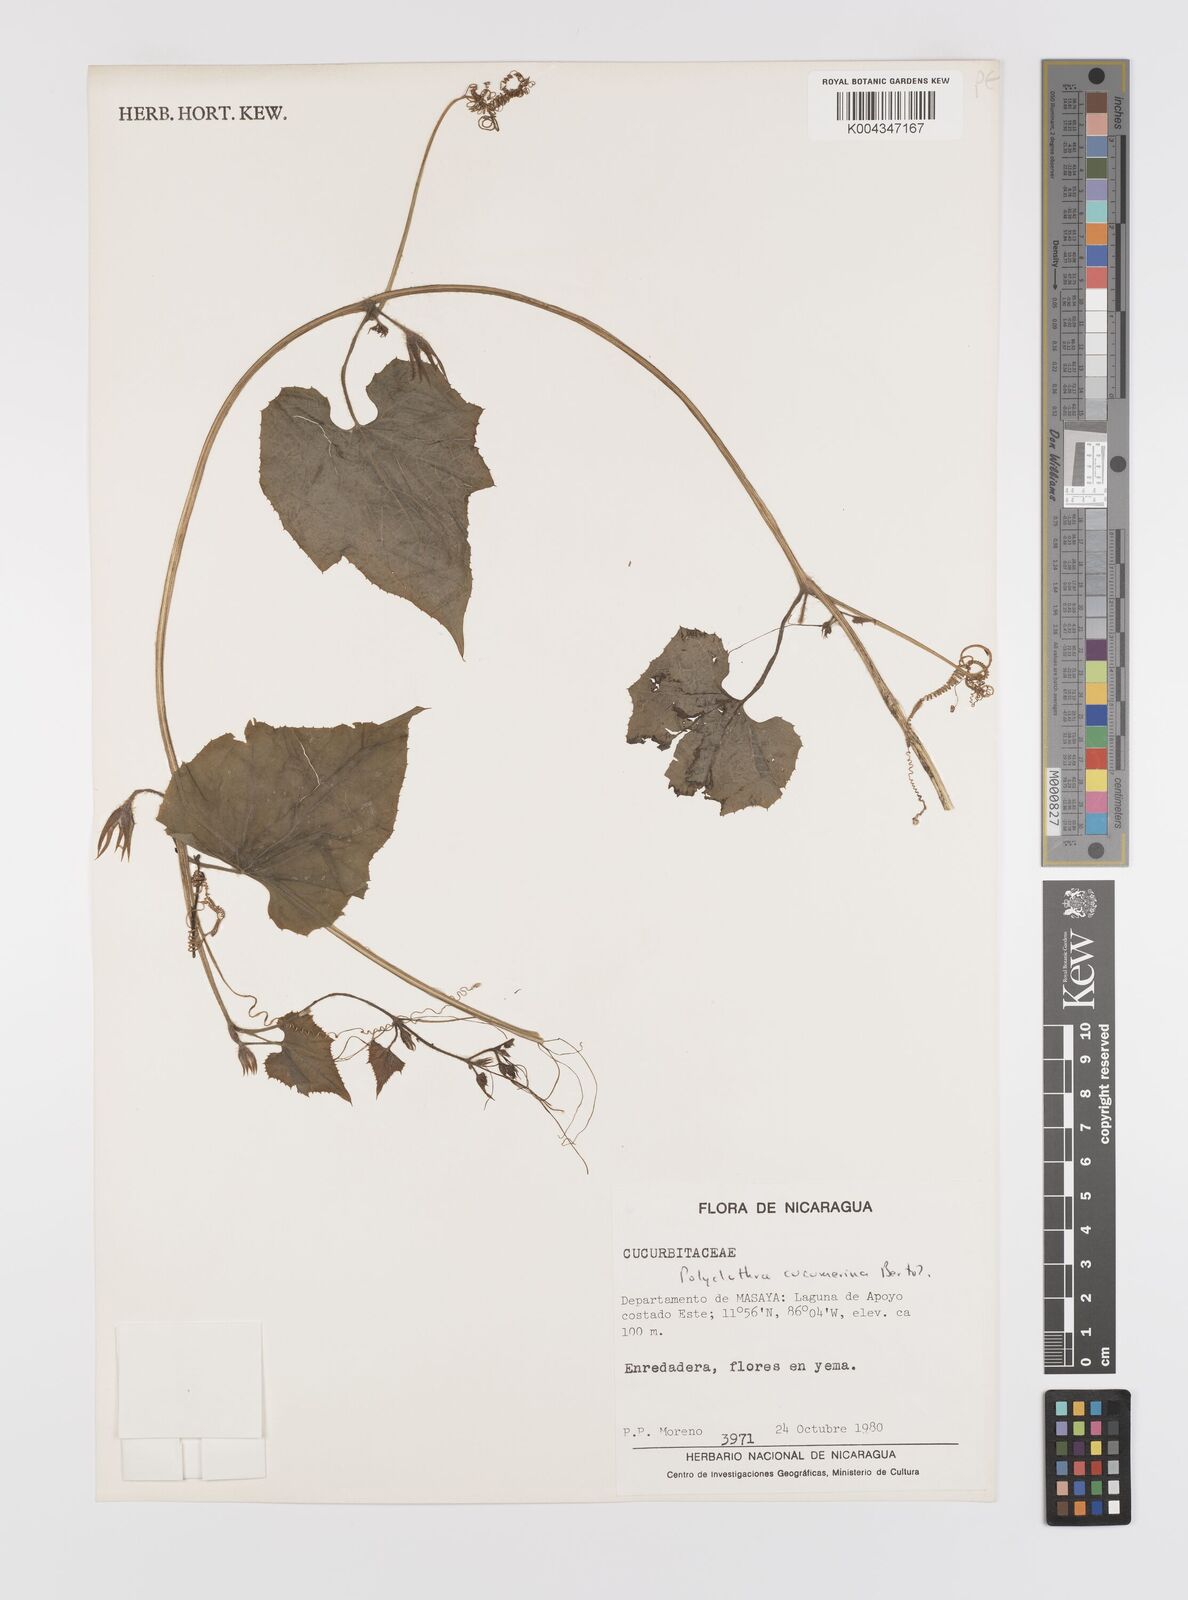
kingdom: Plantae
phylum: Tracheophyta
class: Magnoliopsida
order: Cucurbitales
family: Cucurbitaceae
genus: Polyclathra
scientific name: Polyclathra cucumerina
